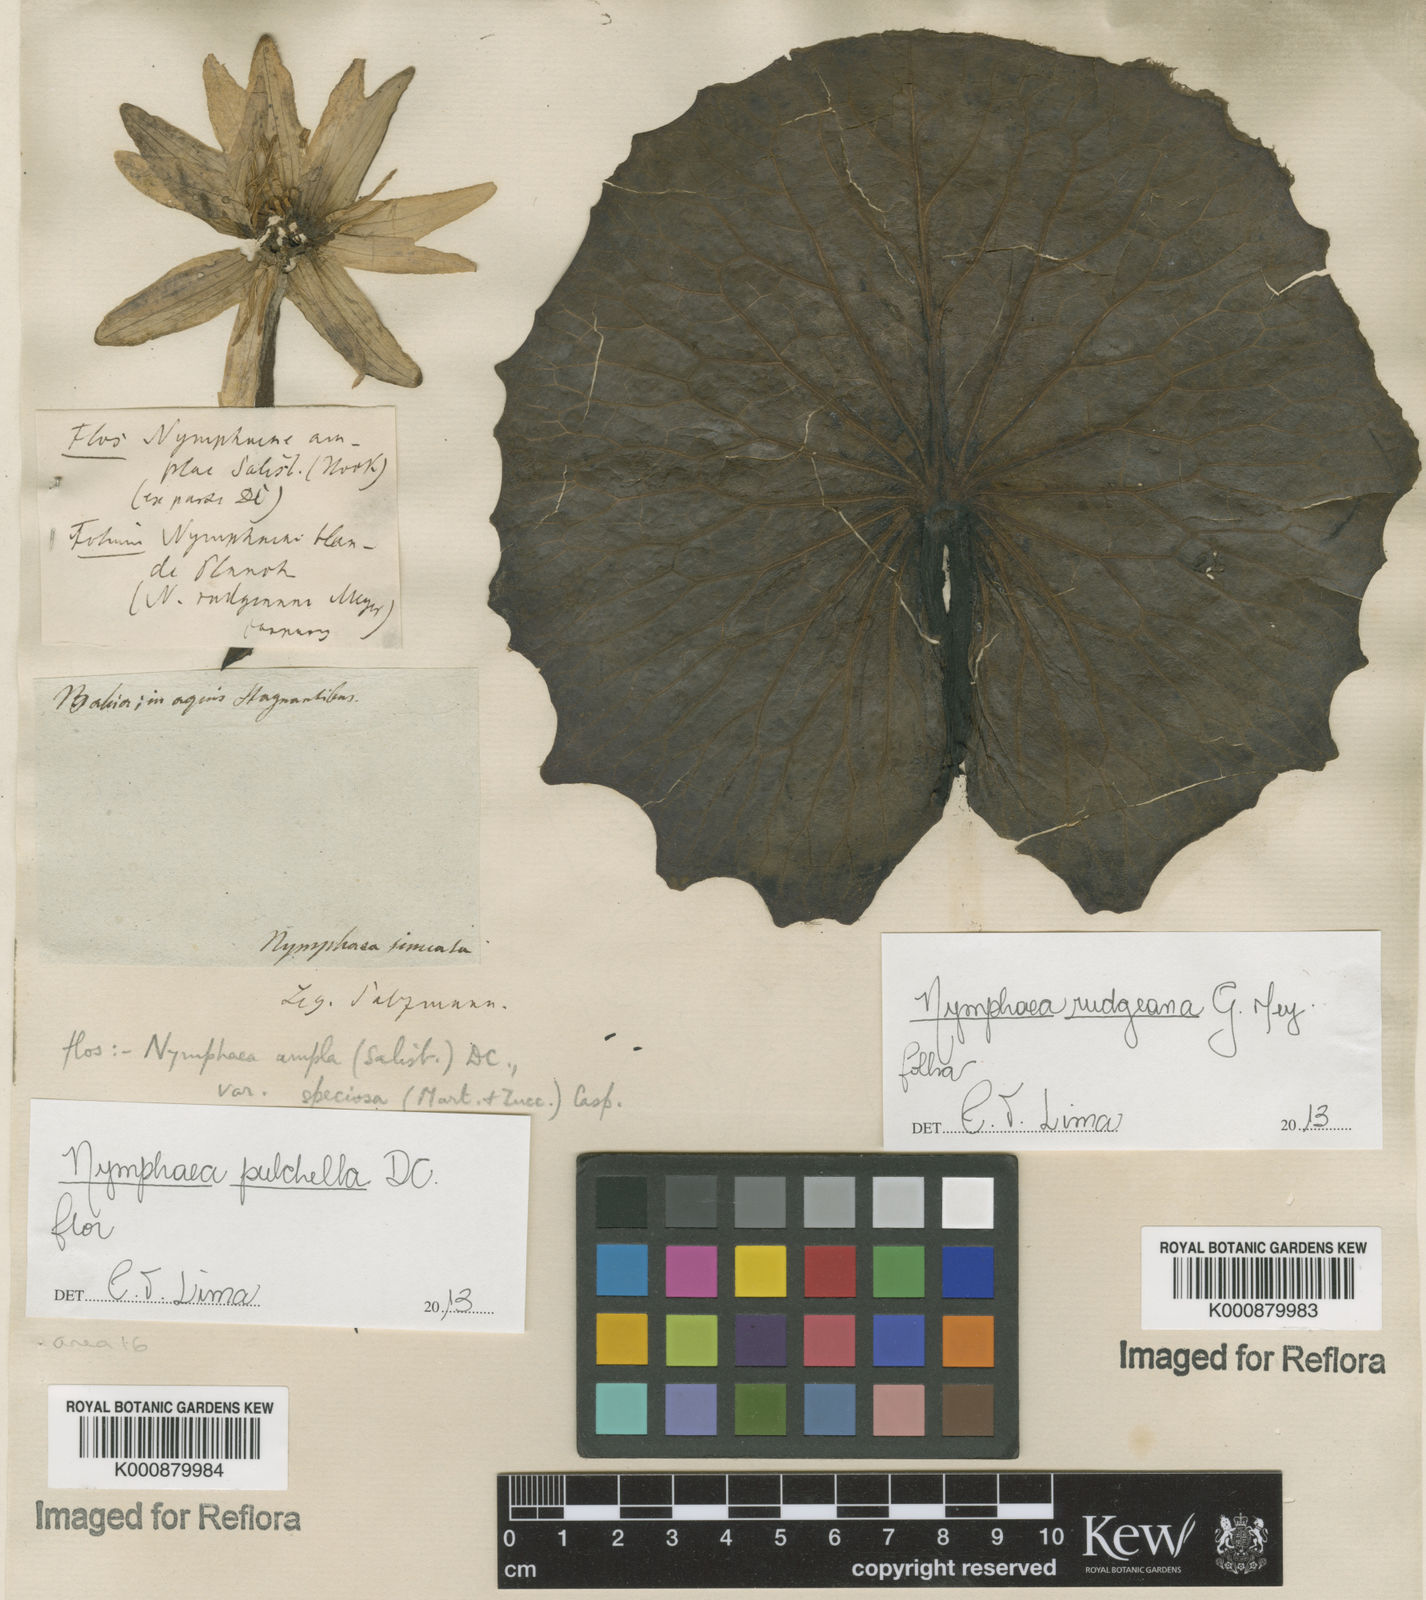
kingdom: Plantae
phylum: Tracheophyta
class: Magnoliopsida
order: Nymphaeales
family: Nymphaeaceae
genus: Nymphaea
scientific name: Nymphaea pulchella
